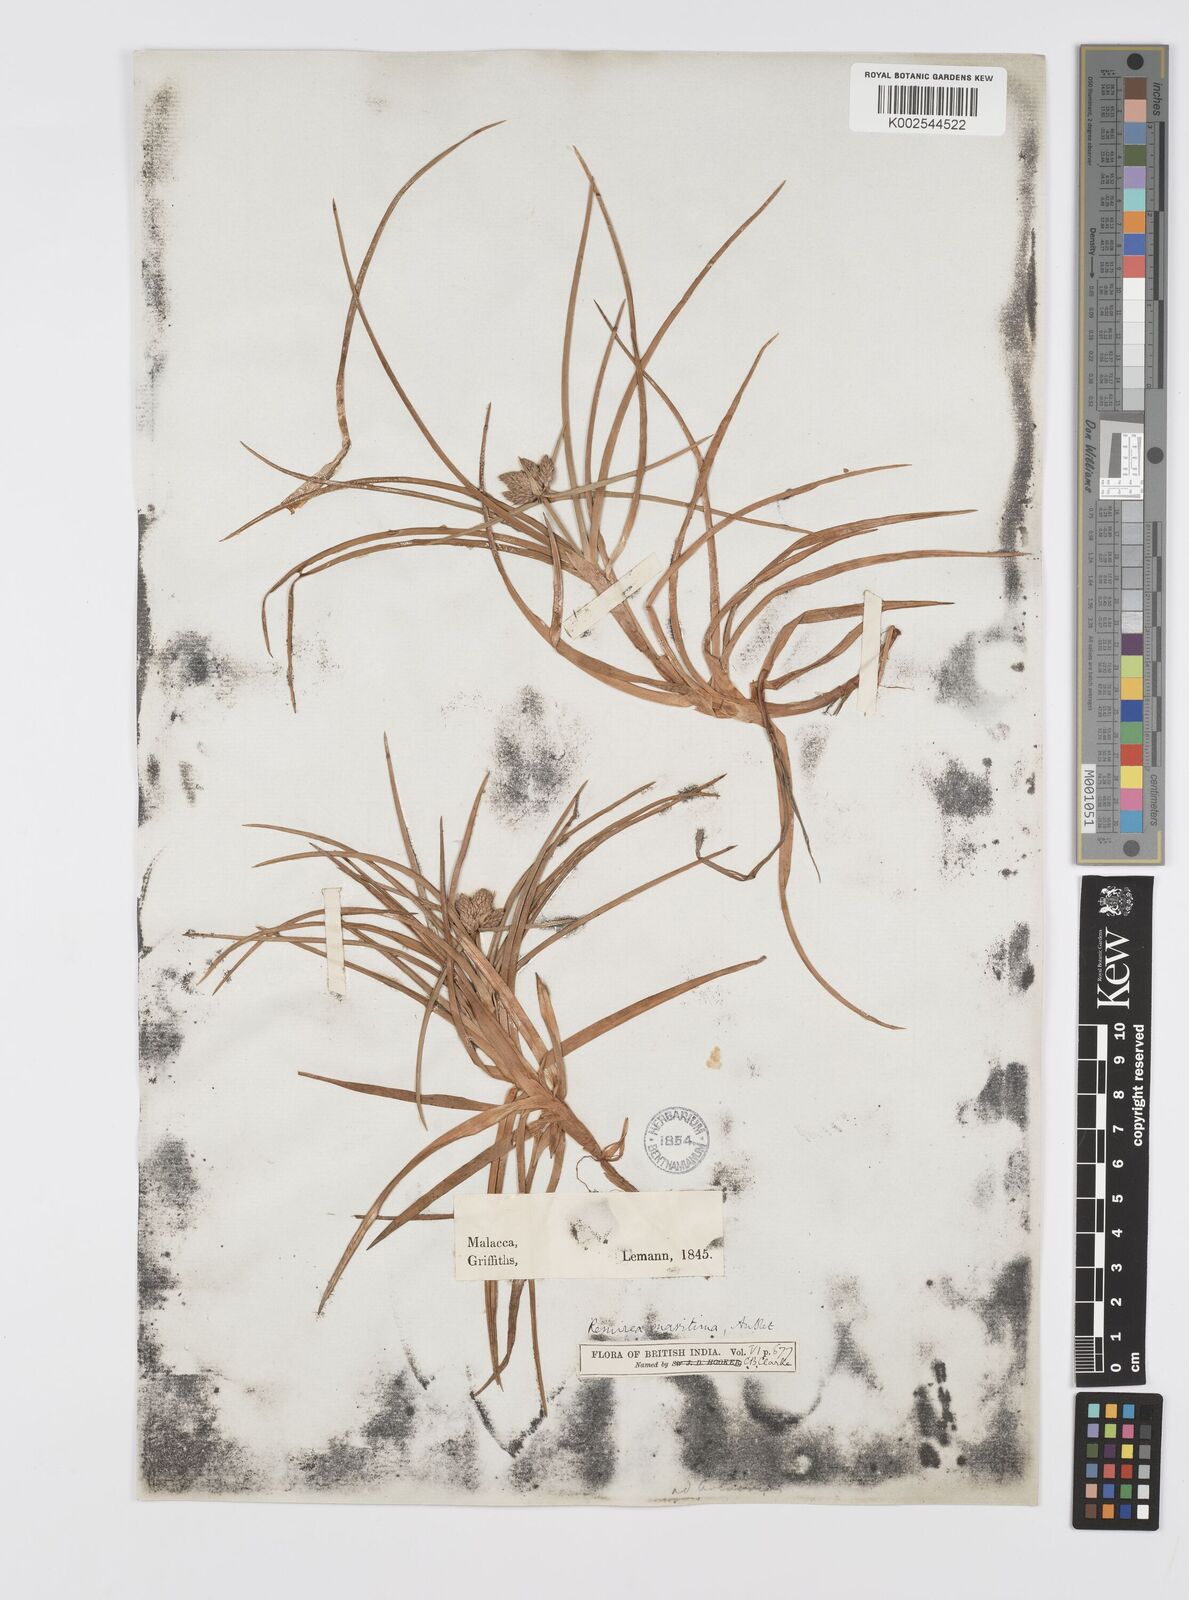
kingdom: Plantae
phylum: Tracheophyta
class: Liliopsida
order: Poales
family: Cyperaceae
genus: Cyperus
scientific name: Cyperus
